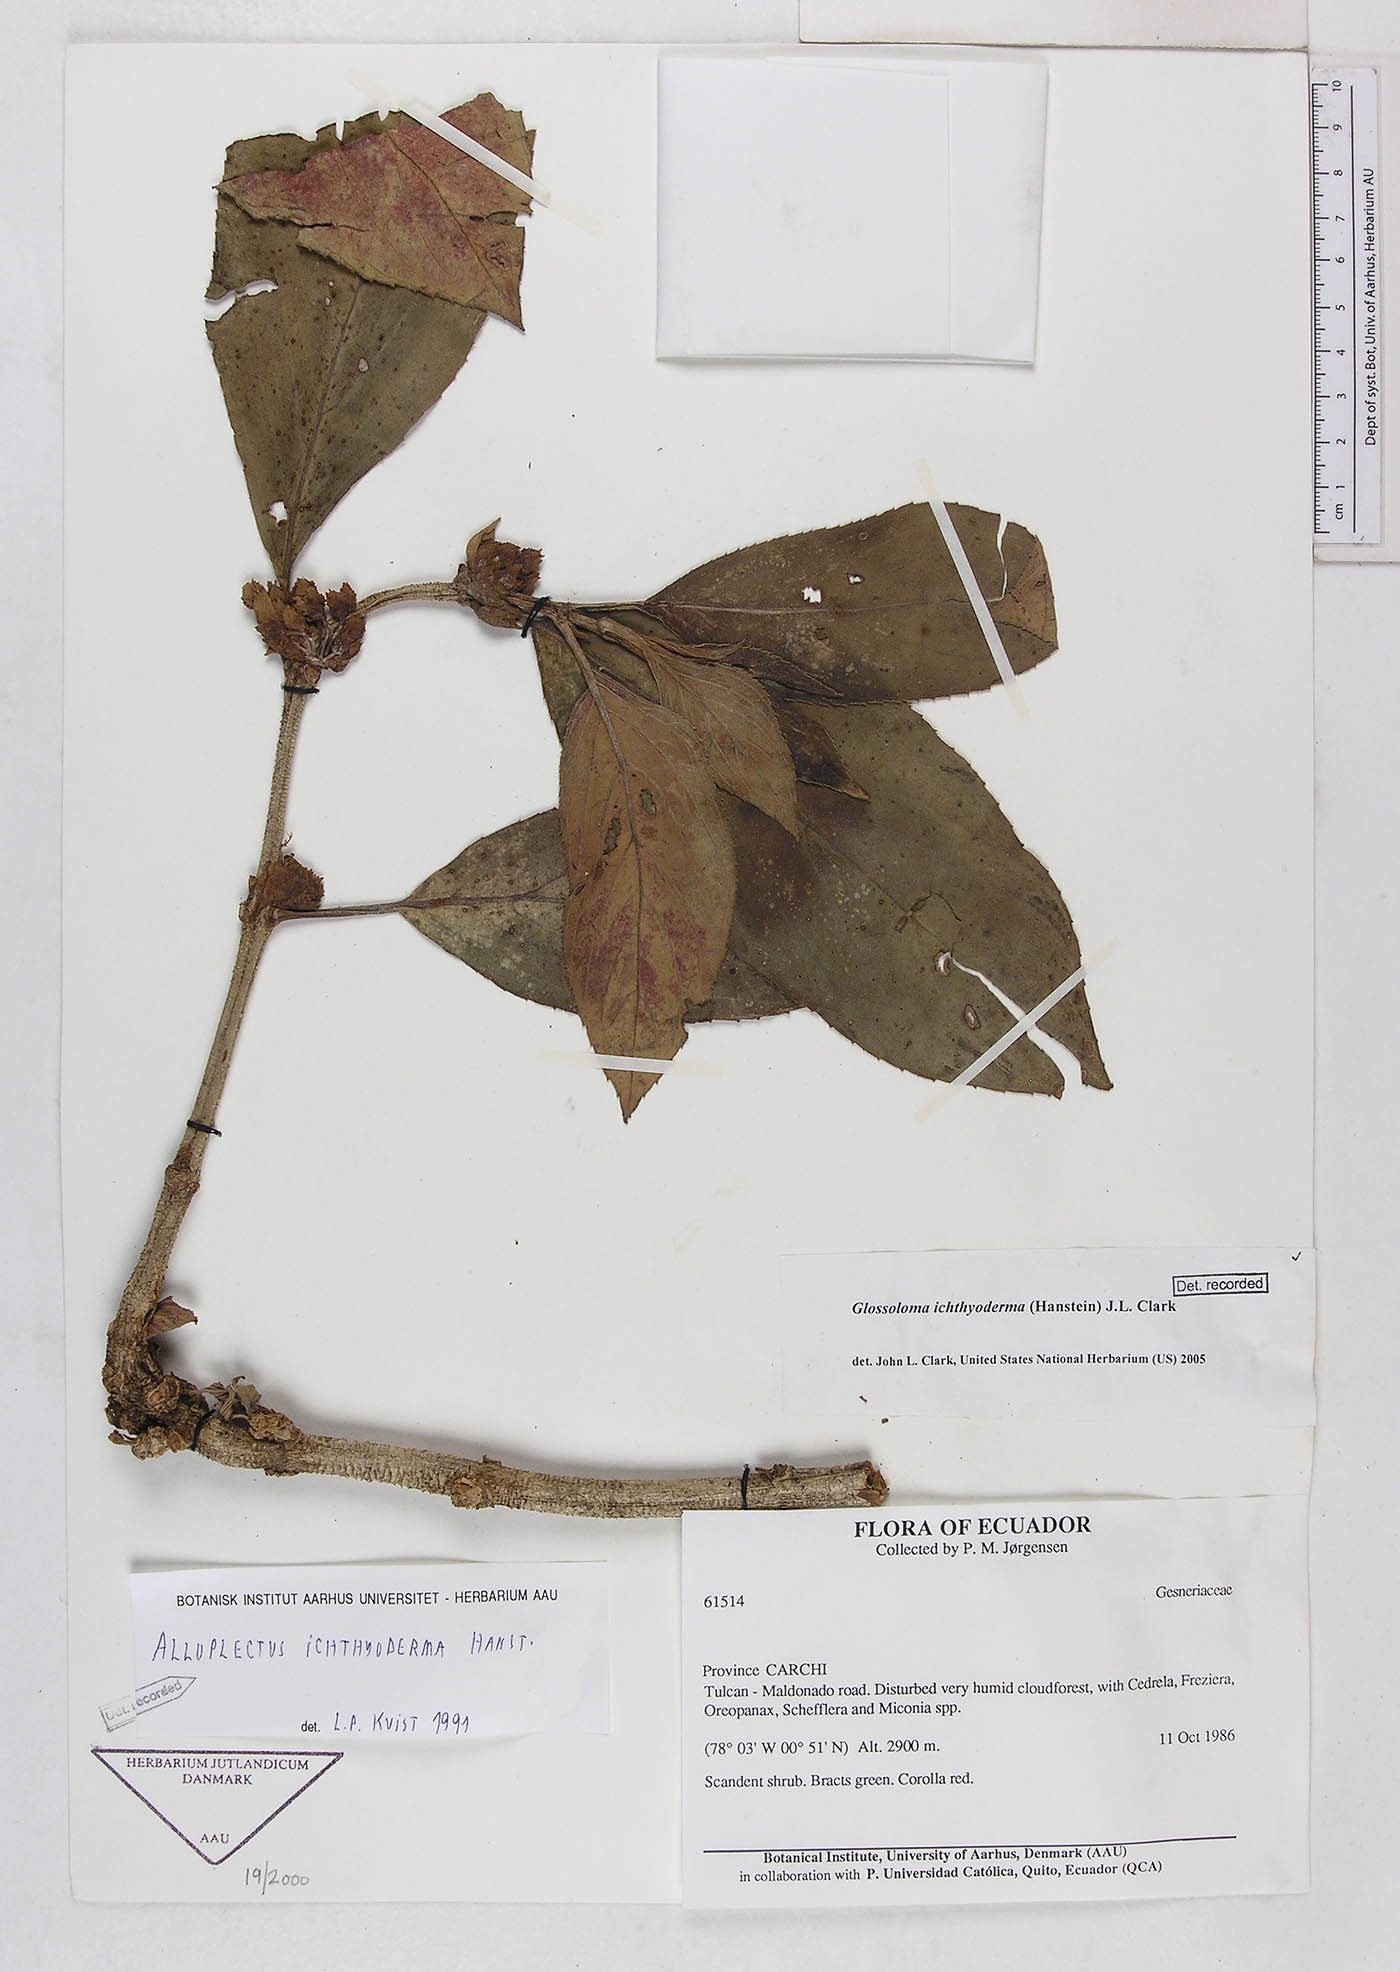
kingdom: Plantae
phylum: Tracheophyta
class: Magnoliopsida
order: Lamiales
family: Gesneriaceae
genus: Glossoloma
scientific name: Glossoloma ichthyoderma
